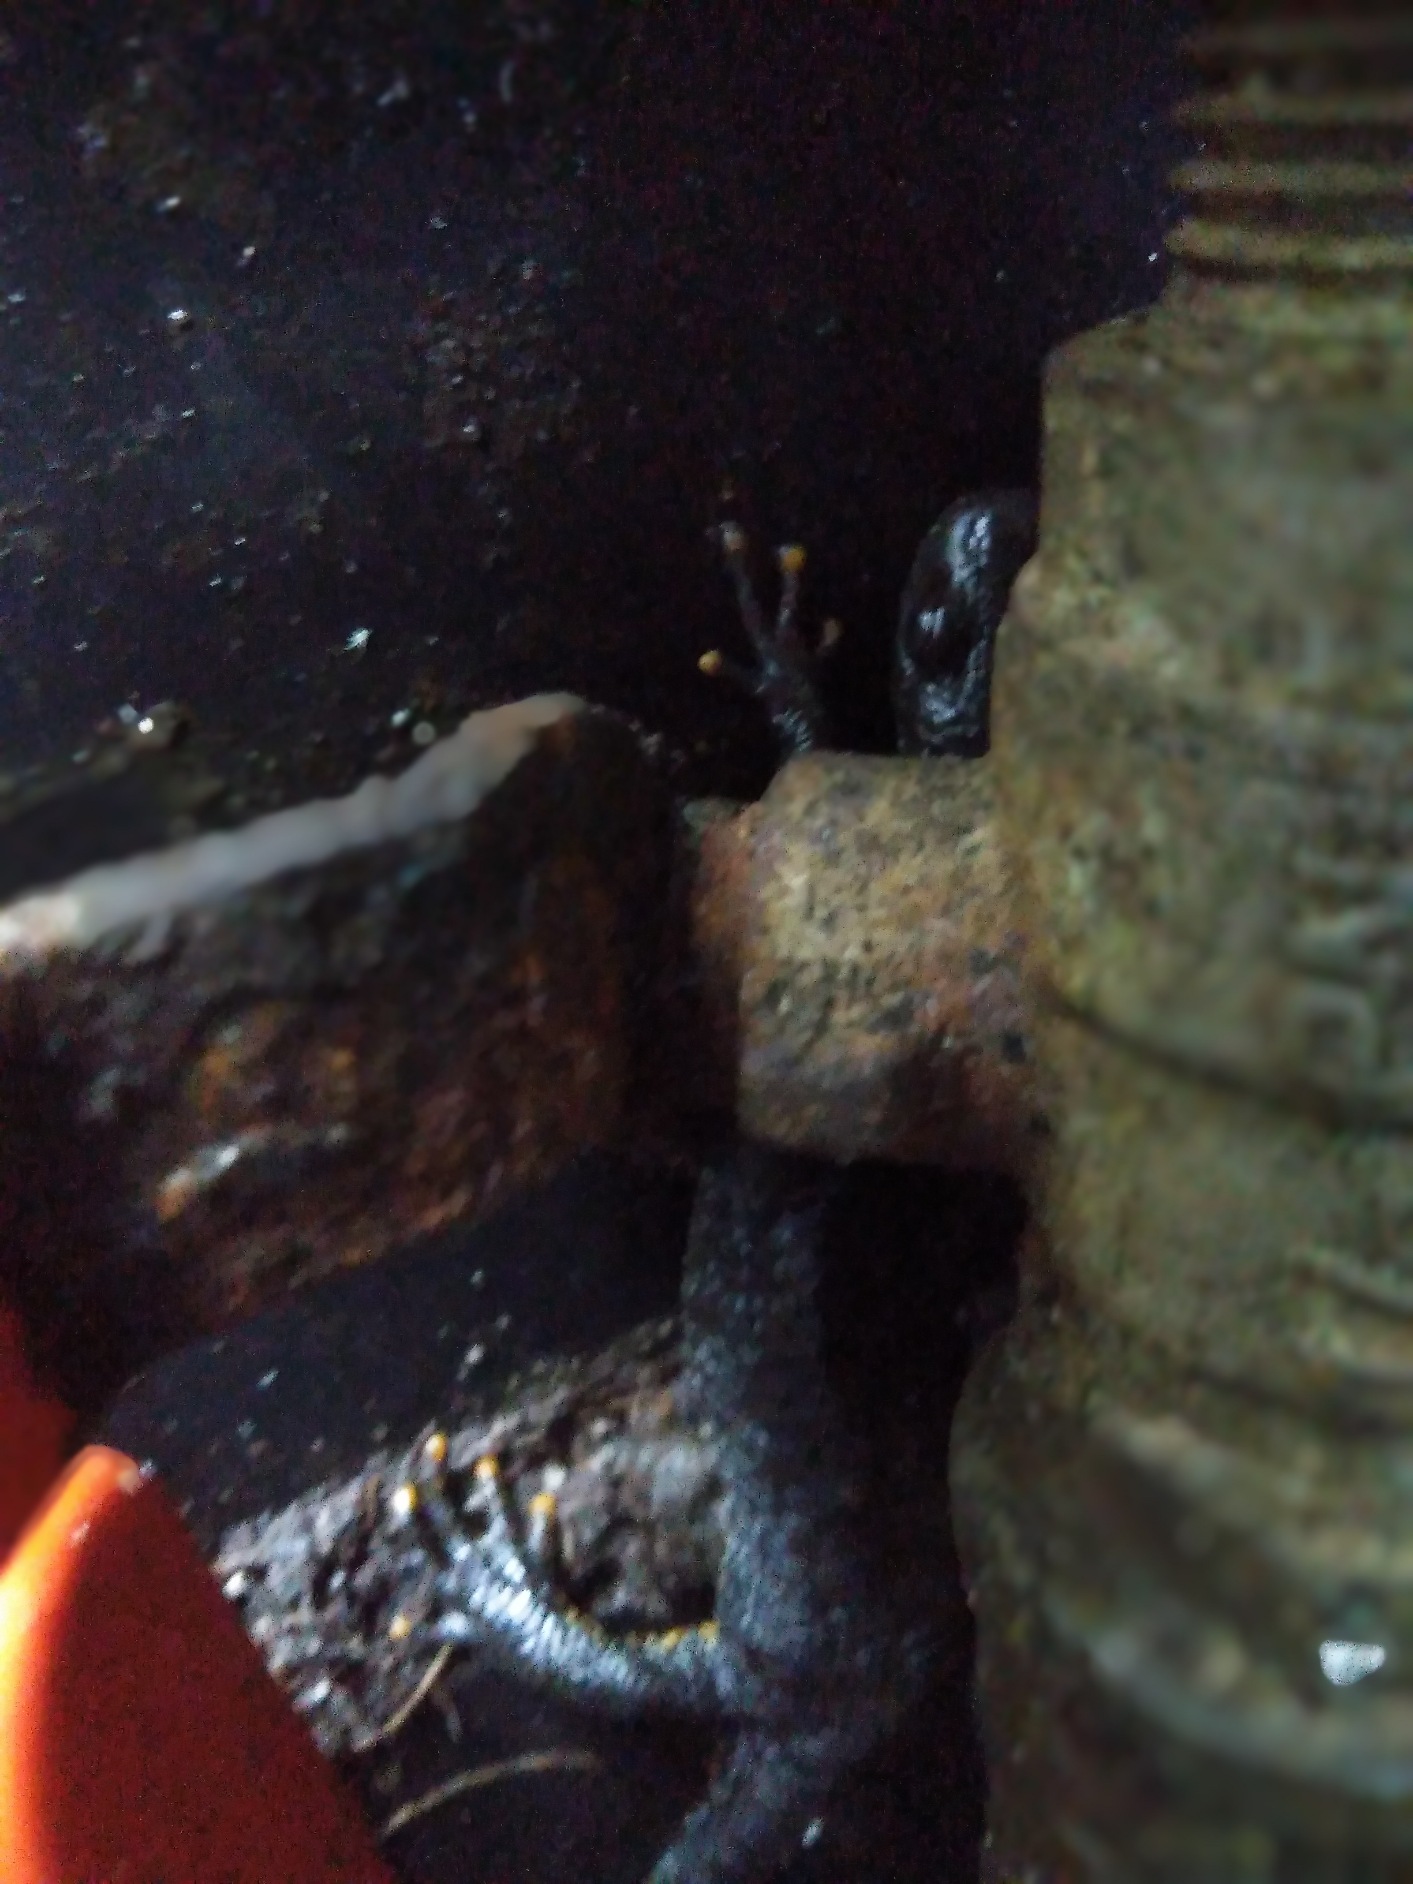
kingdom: Animalia
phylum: Chordata
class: Amphibia
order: Caudata
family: Salamandridae
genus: Triturus
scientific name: Triturus cristatus
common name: Stor vandsalamander
